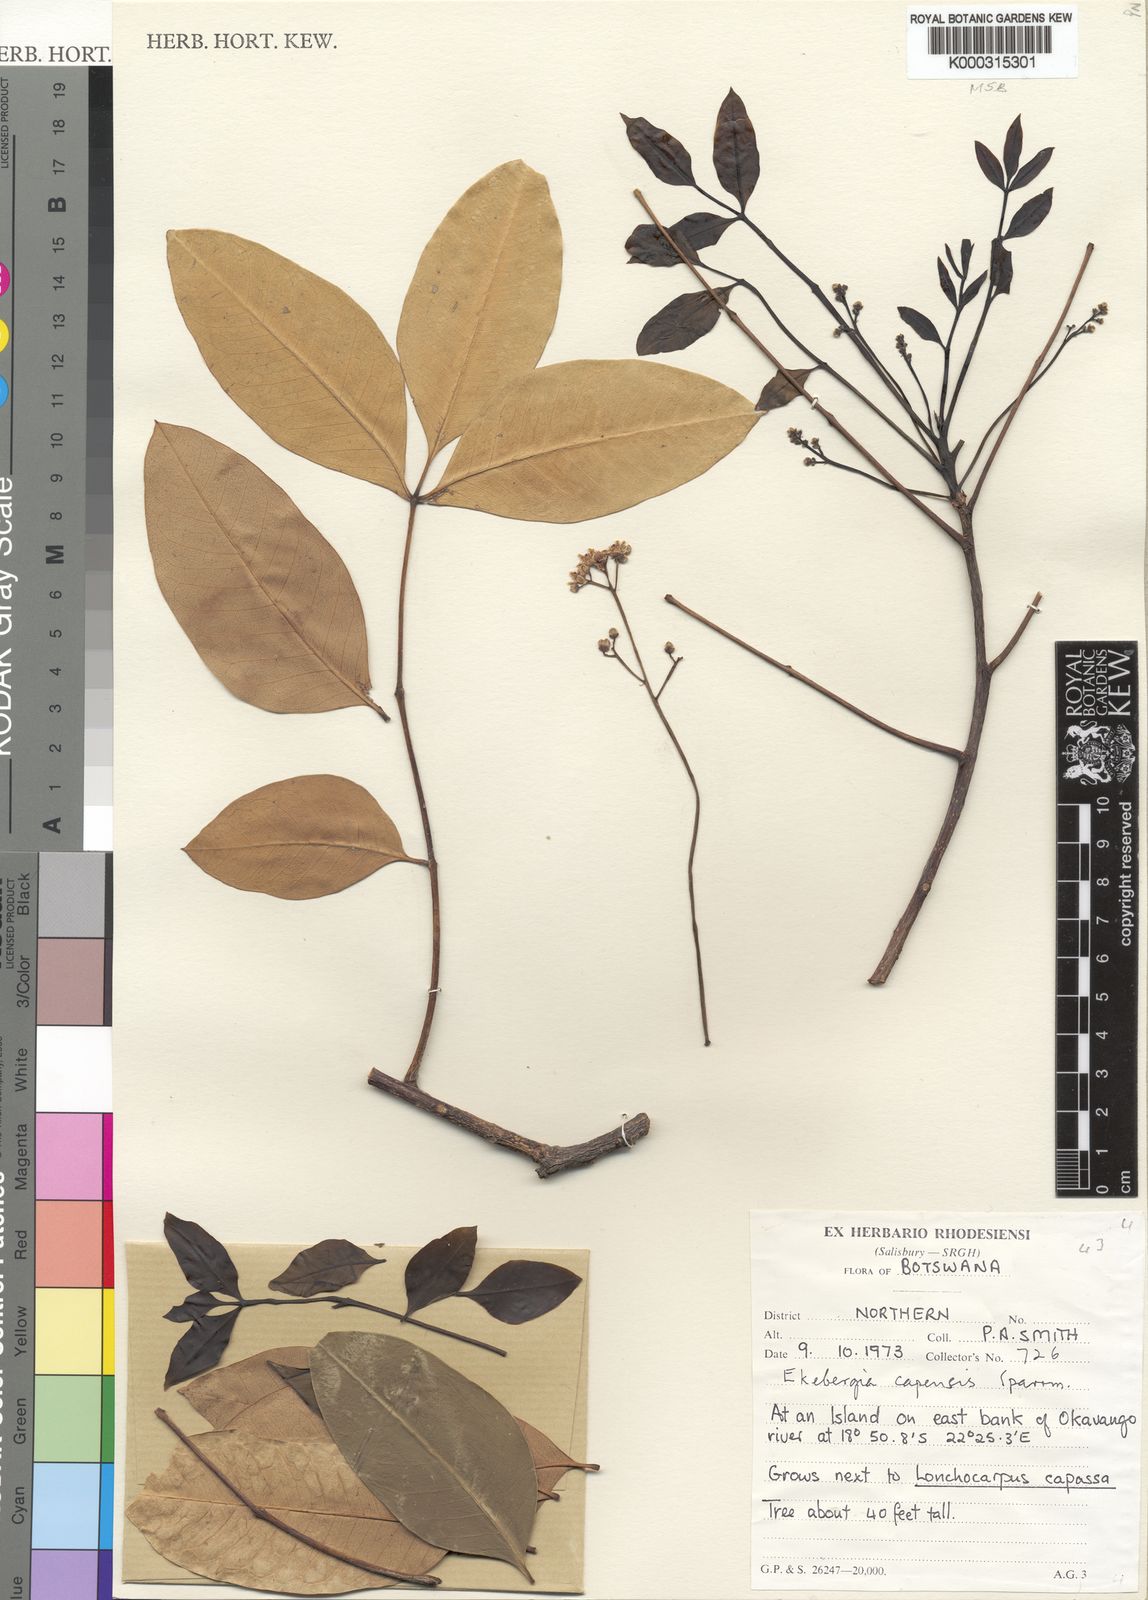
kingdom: Plantae
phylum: Tracheophyta
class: Magnoliopsida
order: Sapindales
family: Meliaceae
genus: Ekebergia
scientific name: Ekebergia capensis
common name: Cape-ash
